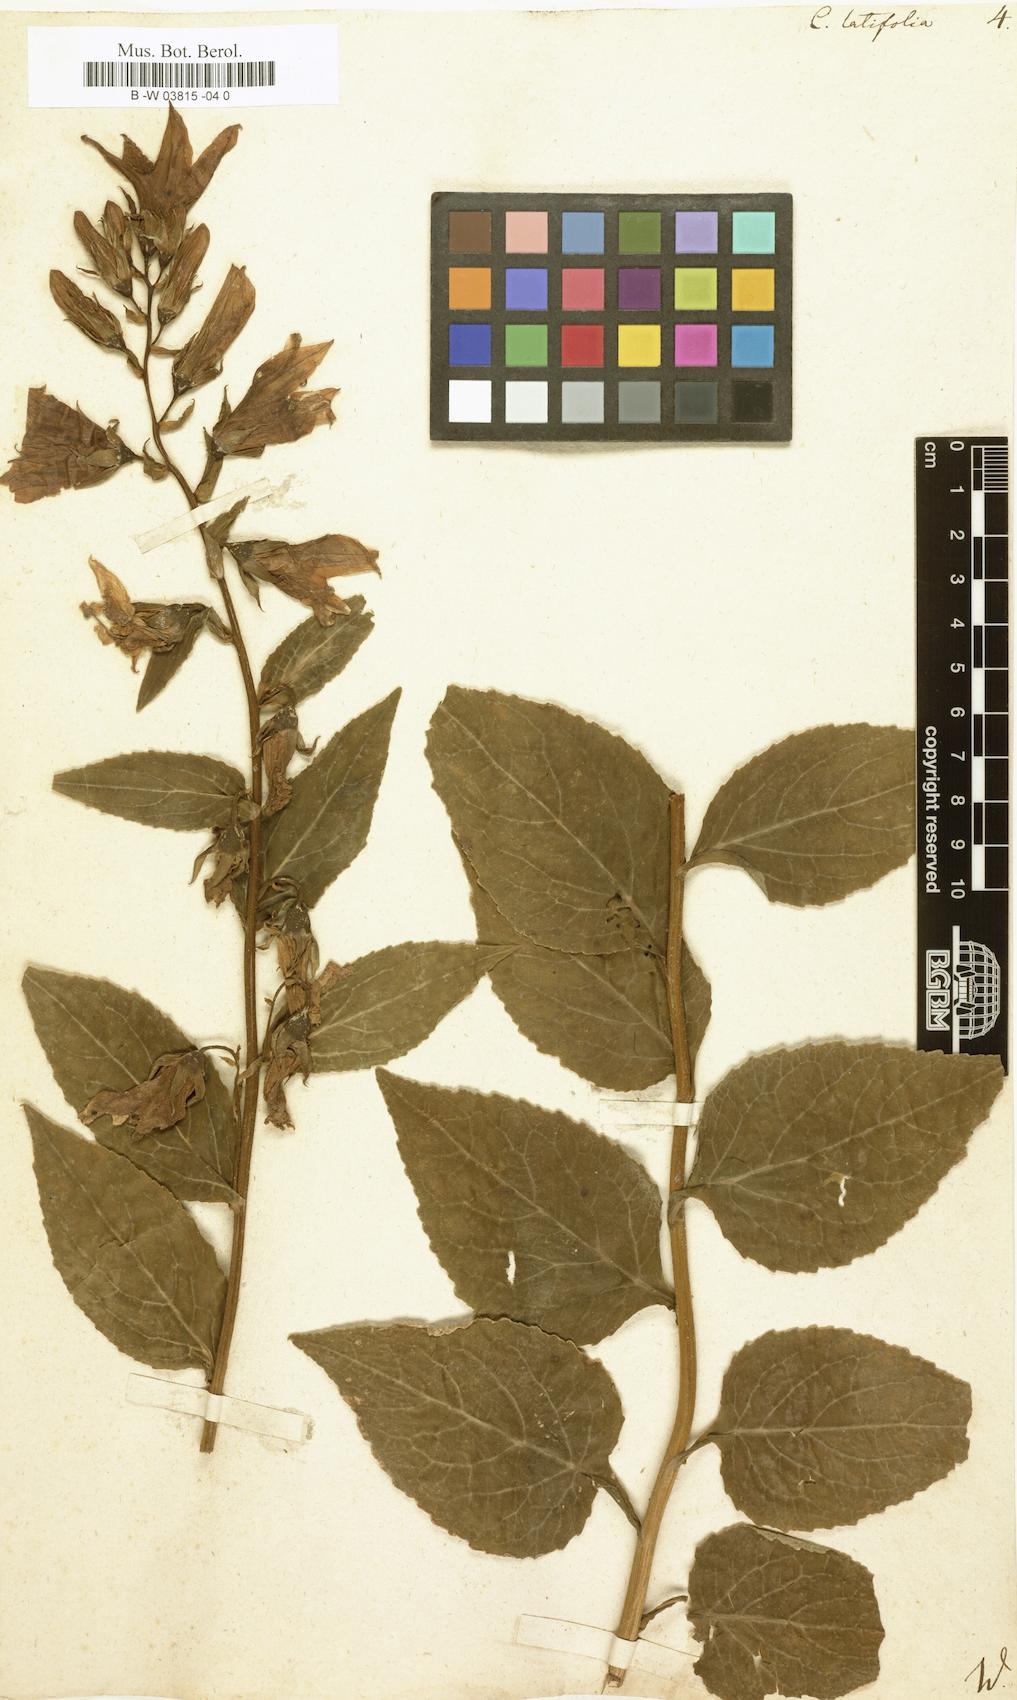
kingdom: Plantae
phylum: Tracheophyta
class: Magnoliopsida
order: Asterales
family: Campanulaceae
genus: Campanula
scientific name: Campanula latifolia
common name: Giant bellflower
